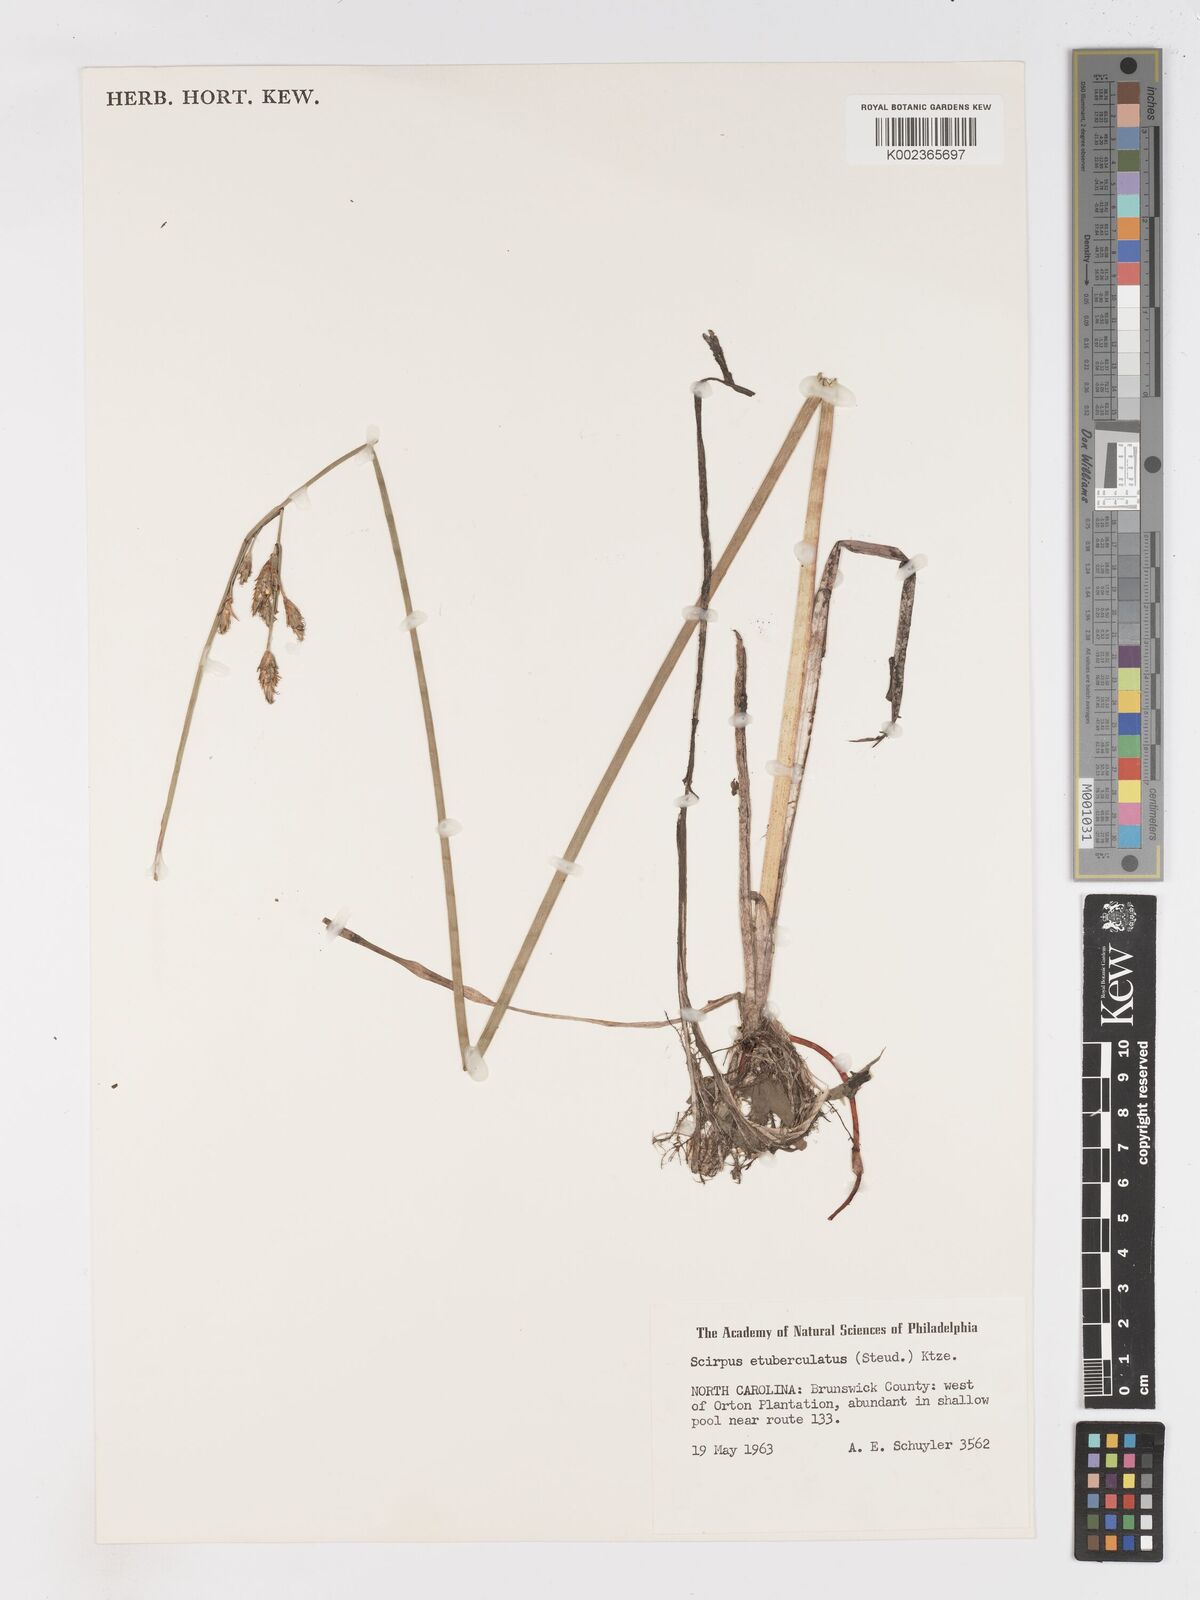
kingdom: Plantae
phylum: Tracheophyta
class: Liliopsida
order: Poales
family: Cyperaceae
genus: Schoenoplectus
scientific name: Schoenoplectus etuberculatus
